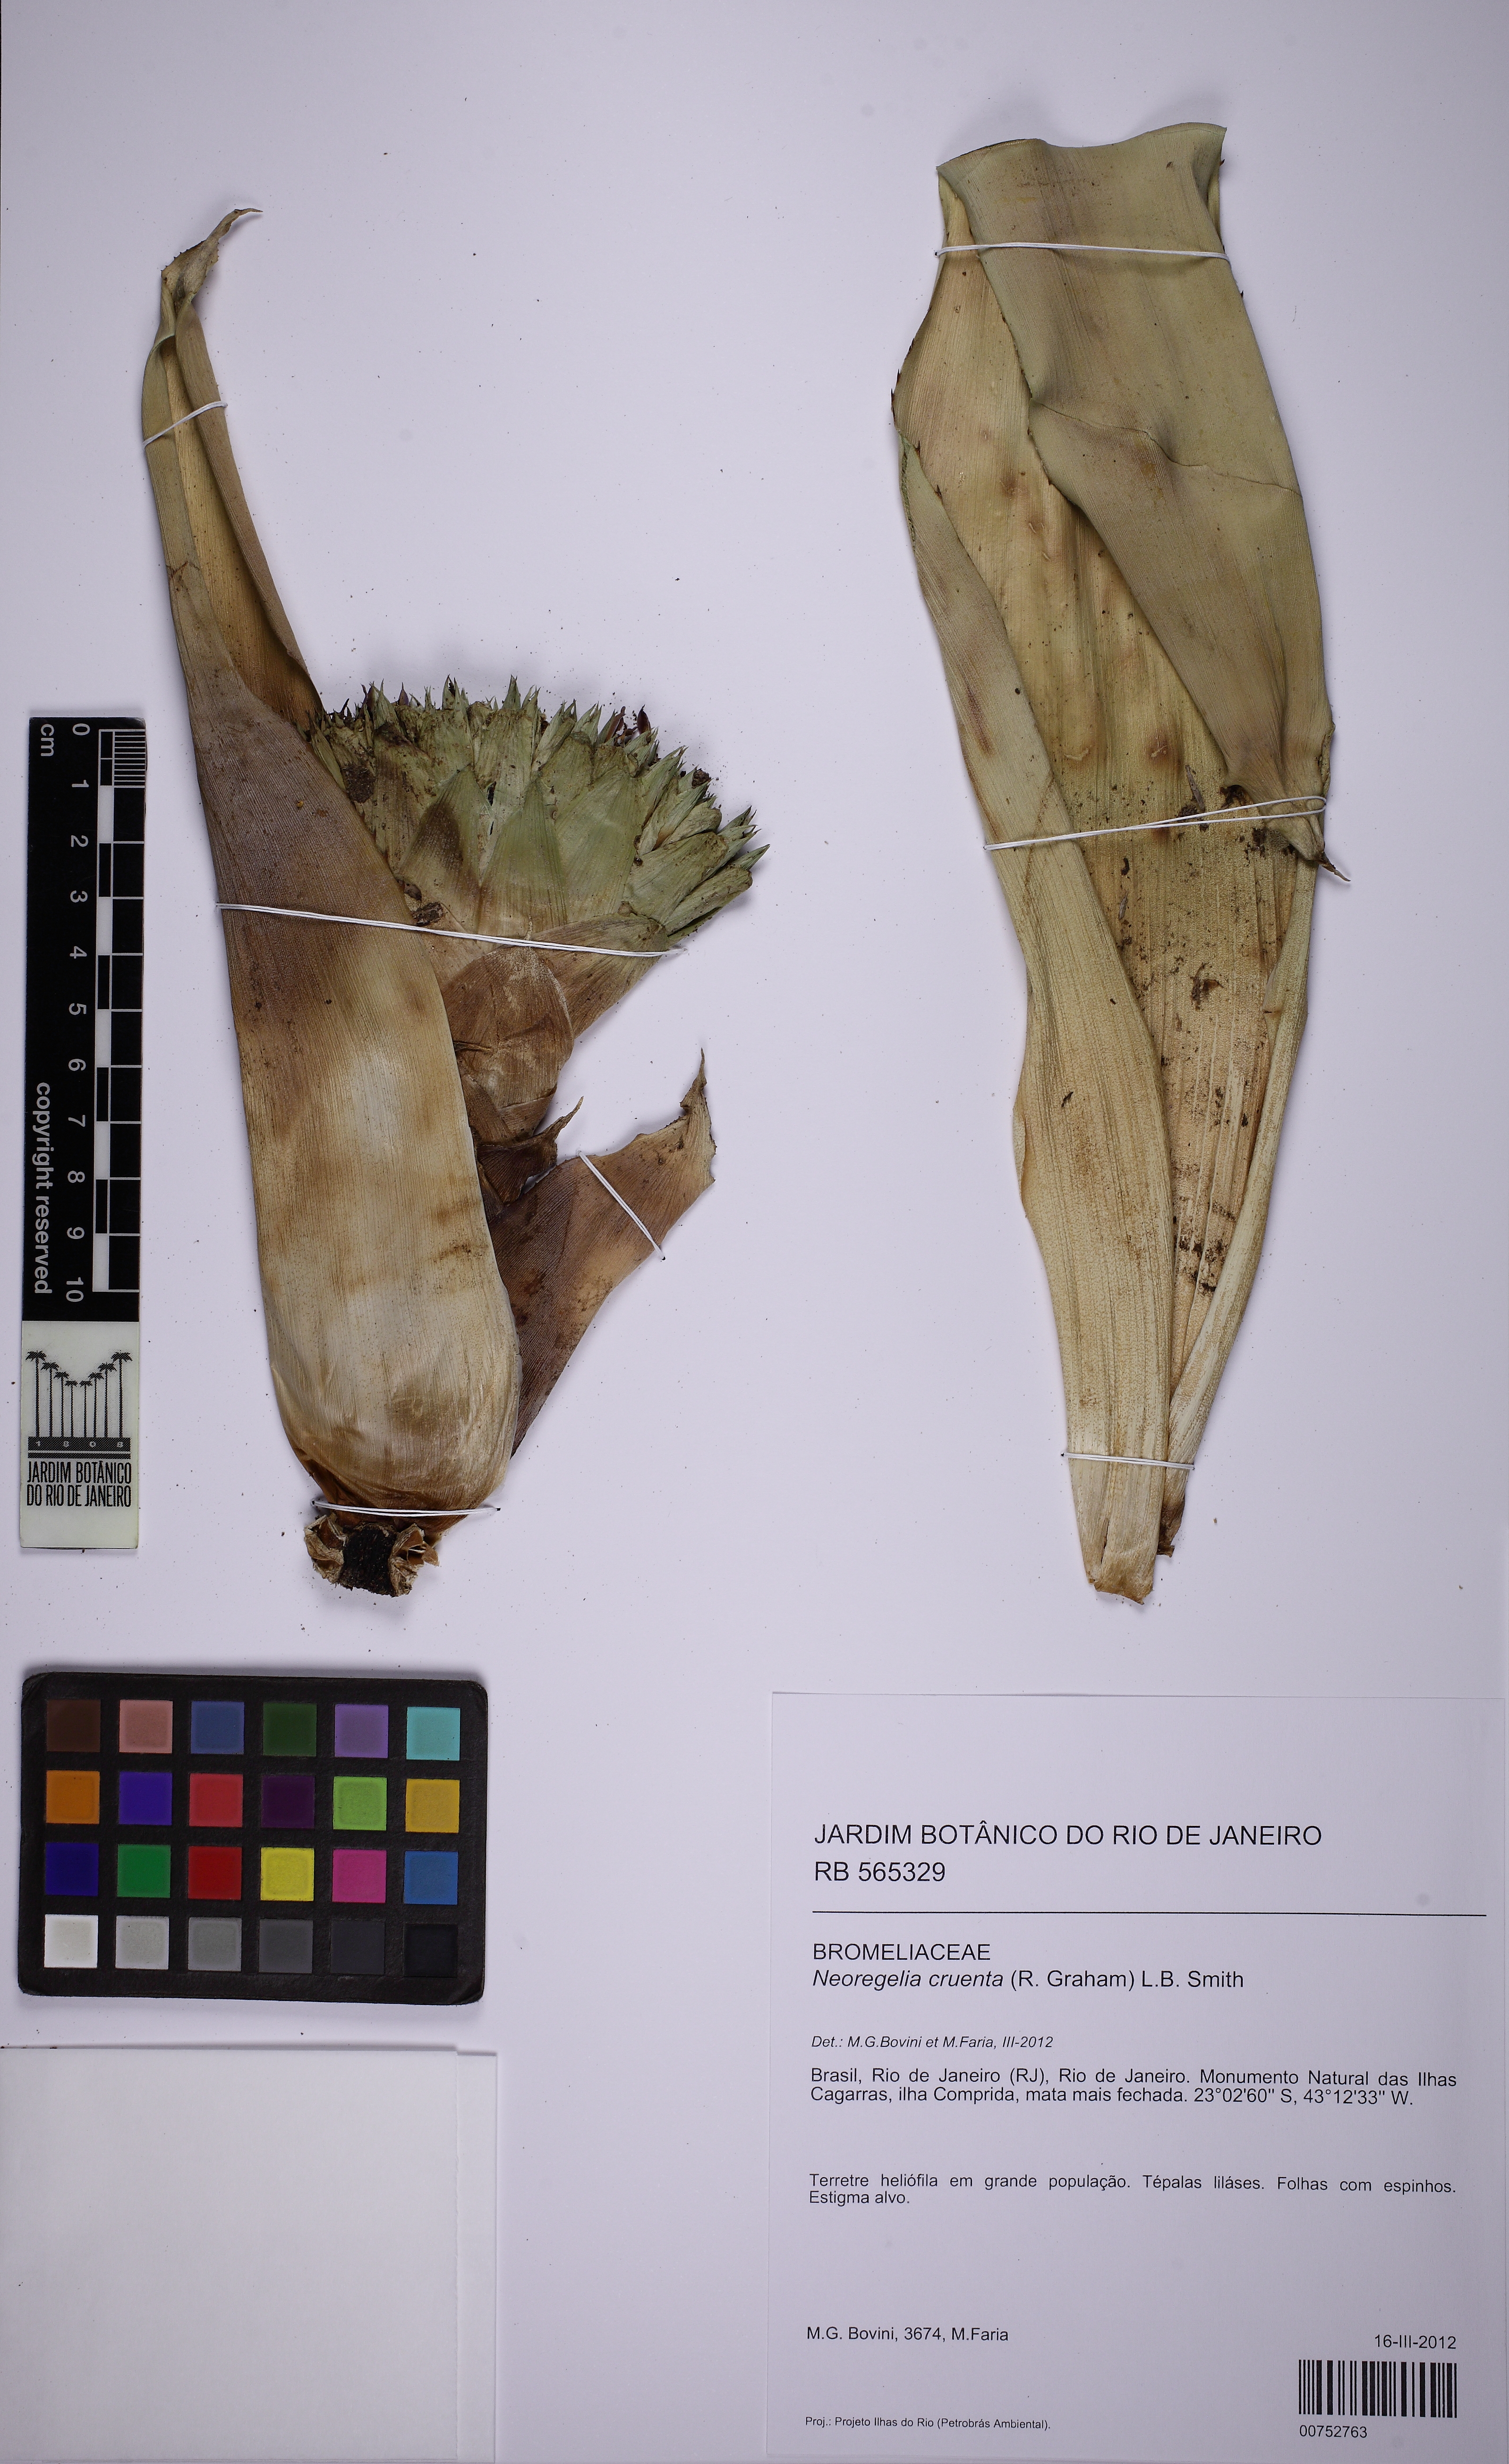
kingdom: Plantae
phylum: Tracheophyta
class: Liliopsida
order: Poales
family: Bromeliaceae
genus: Neoregelia
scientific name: Neoregelia cruenta
